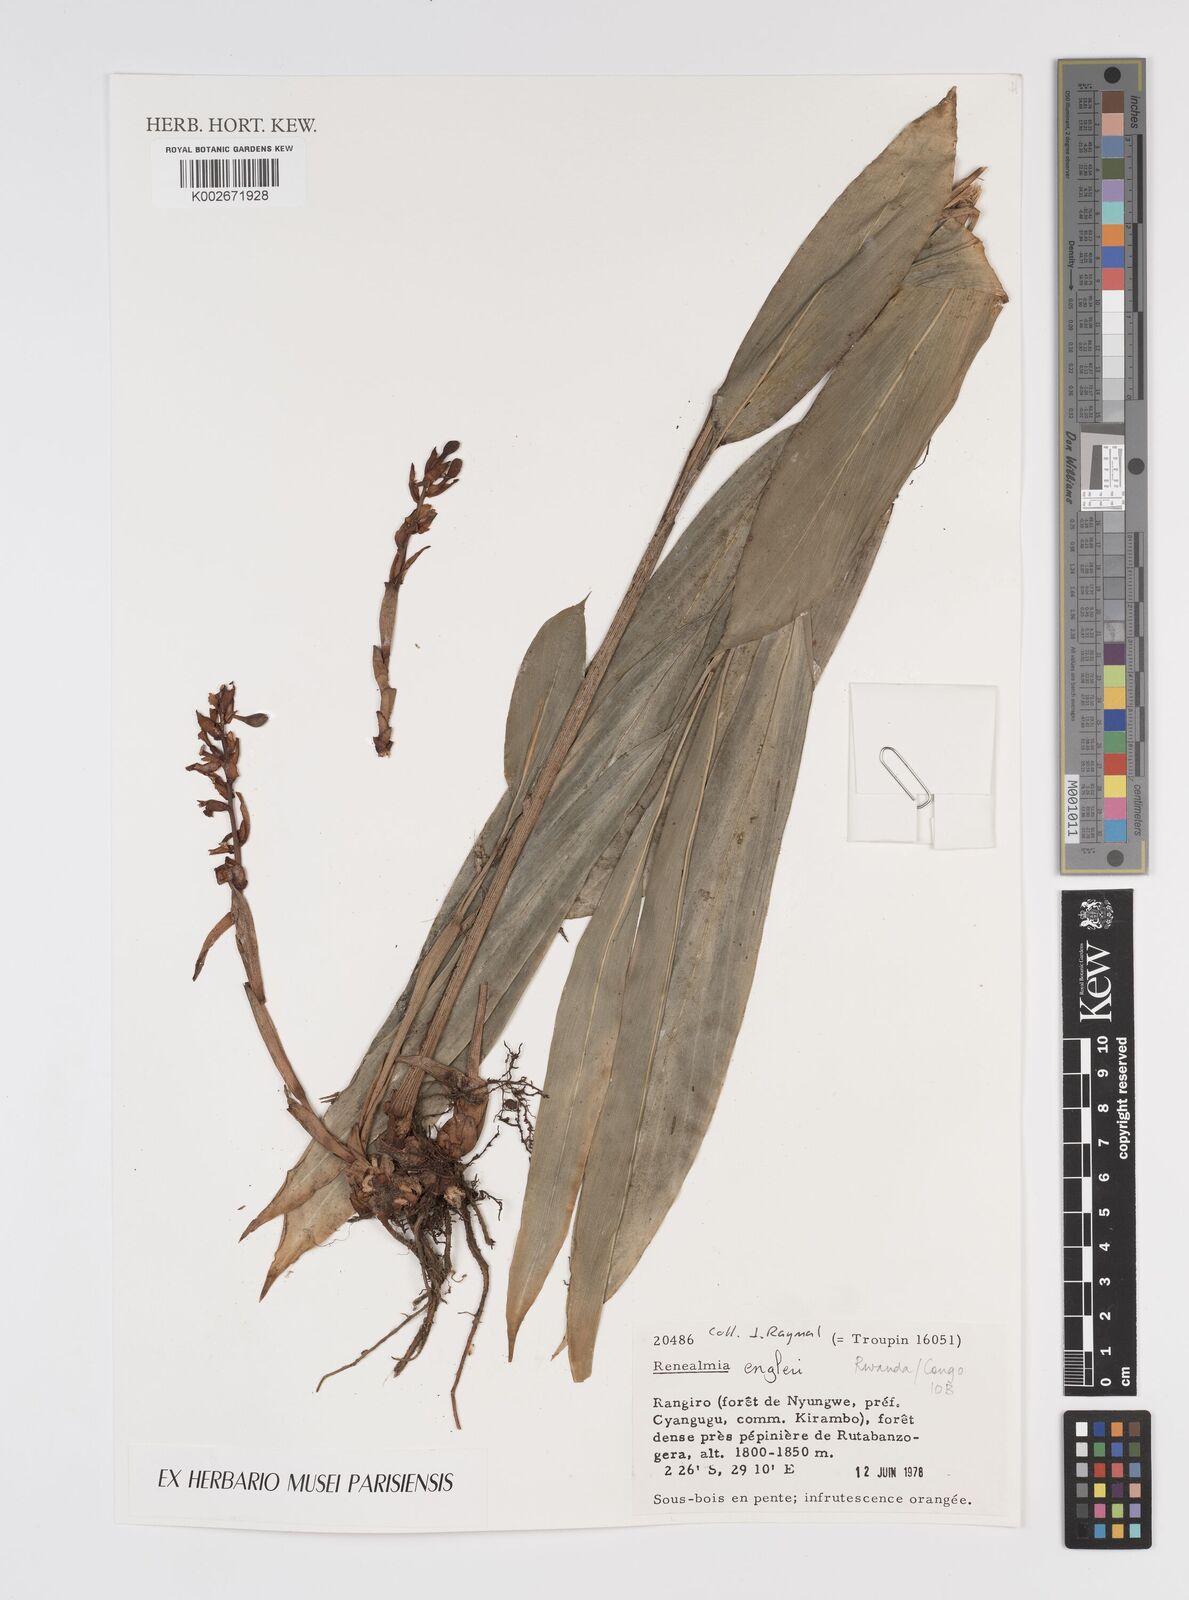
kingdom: Plantae
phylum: Tracheophyta
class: Liliopsida
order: Zingiberales
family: Zingiberaceae
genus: Renealmia
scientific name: Renealmia engleri
